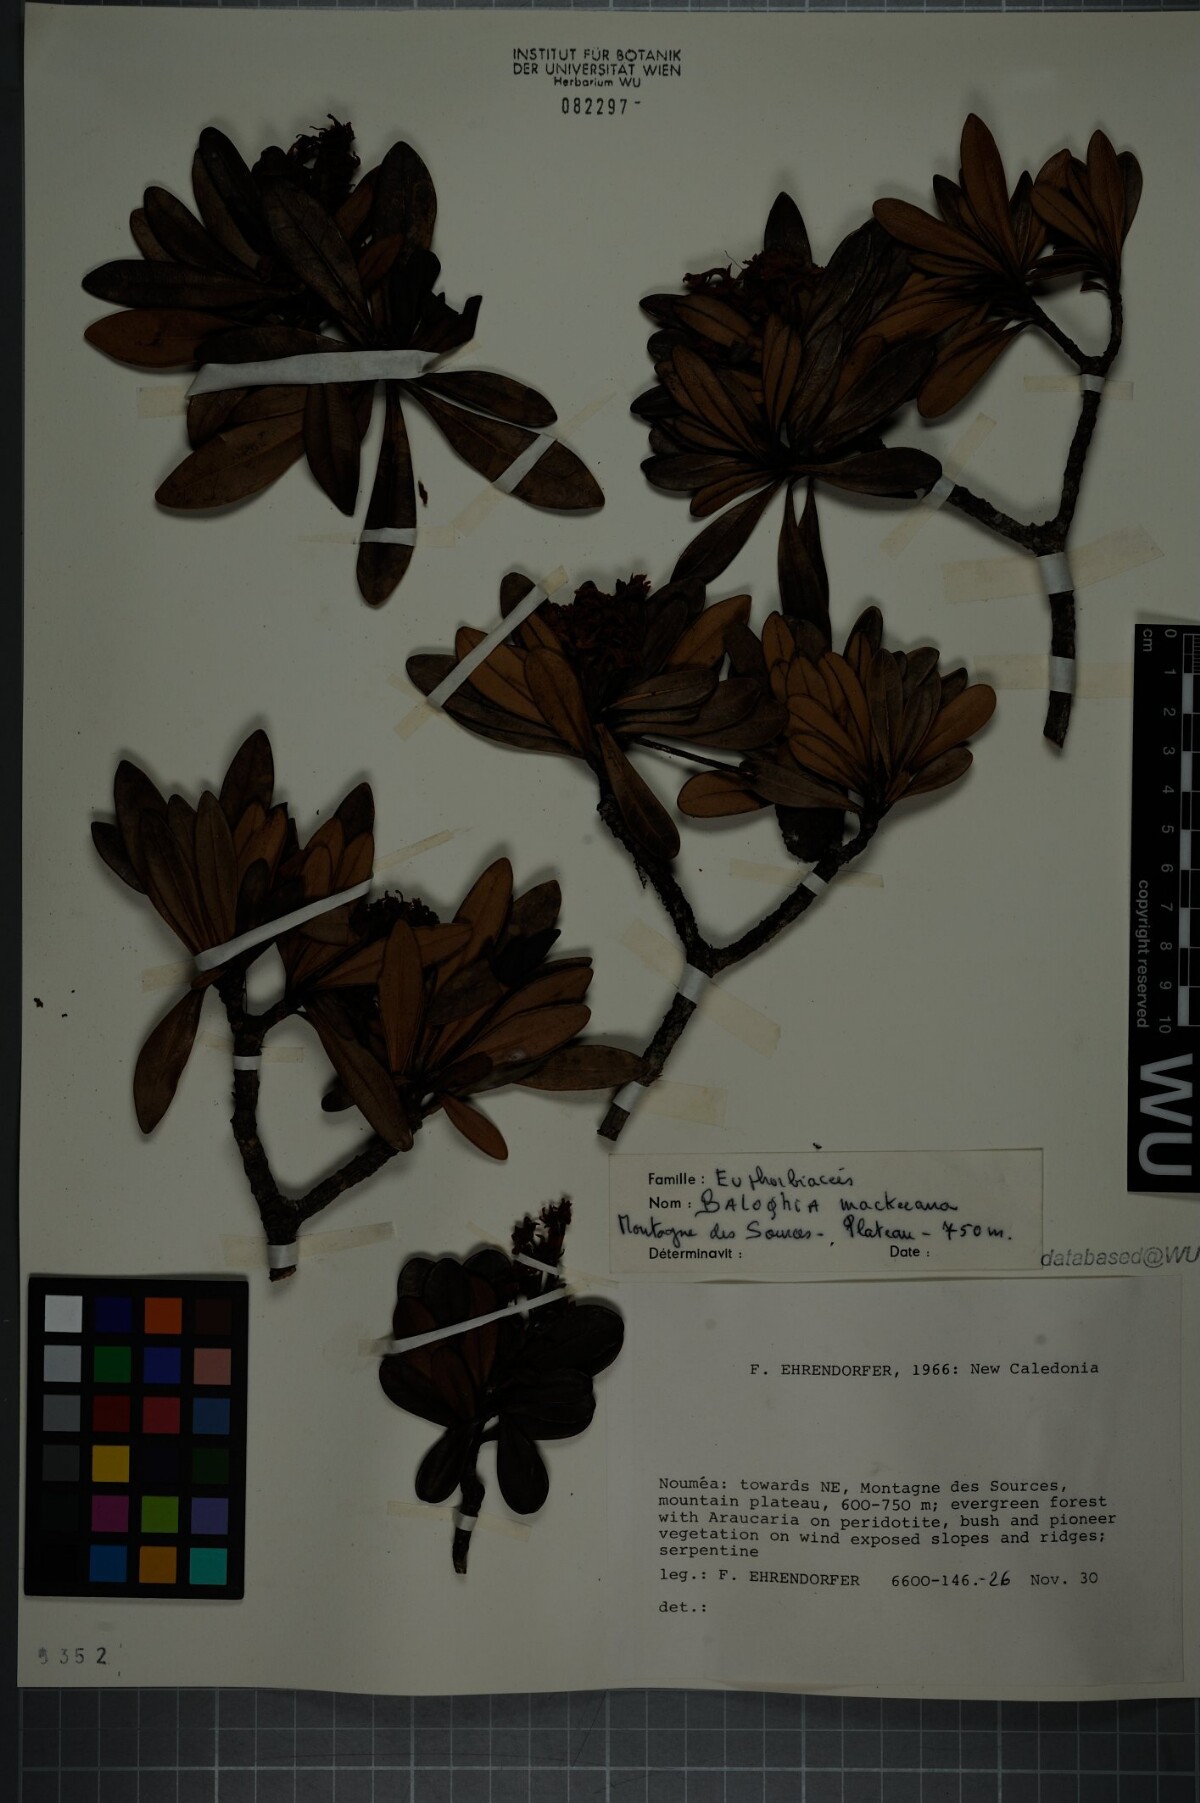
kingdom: Plantae
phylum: Tracheophyta
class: Magnoliopsida
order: Malpighiales
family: Euphorbiaceae
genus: Baloghia
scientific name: Baloghia buchholzii
